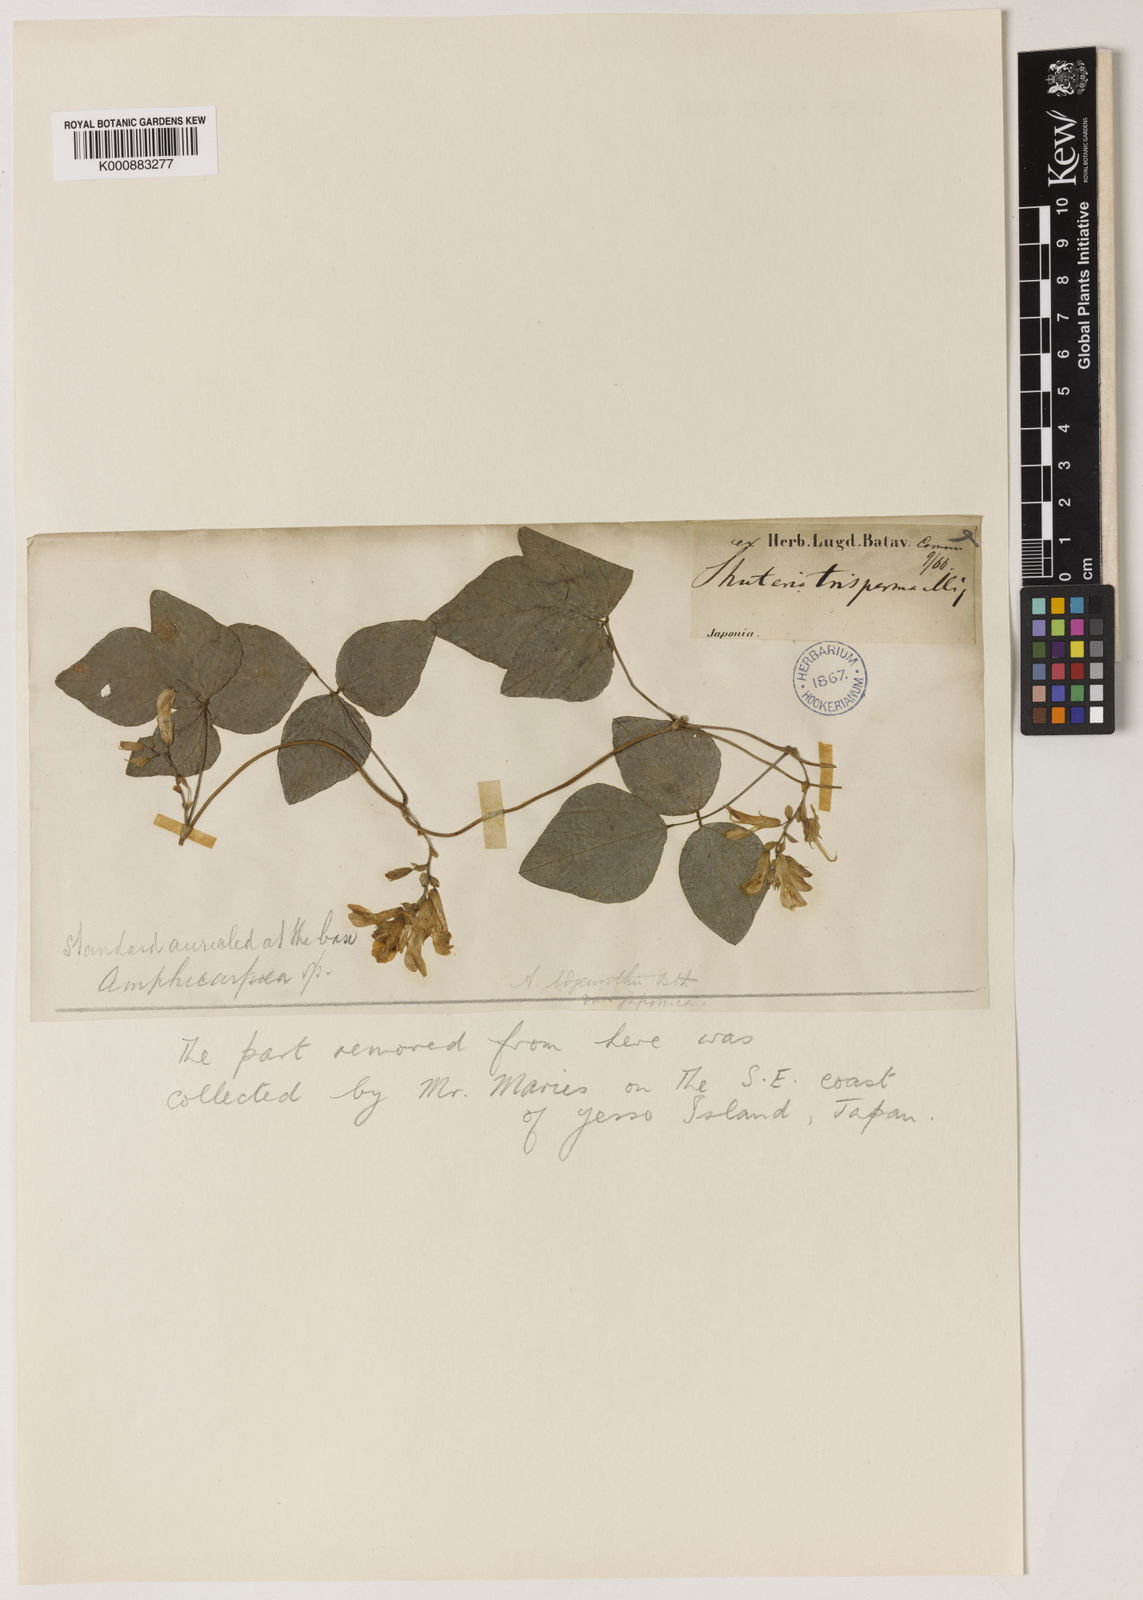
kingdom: Plantae
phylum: Tracheophyta
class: Magnoliopsida
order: Fabales
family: Fabaceae
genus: Amphicarpaea
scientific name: Amphicarpaea edgeworthii
